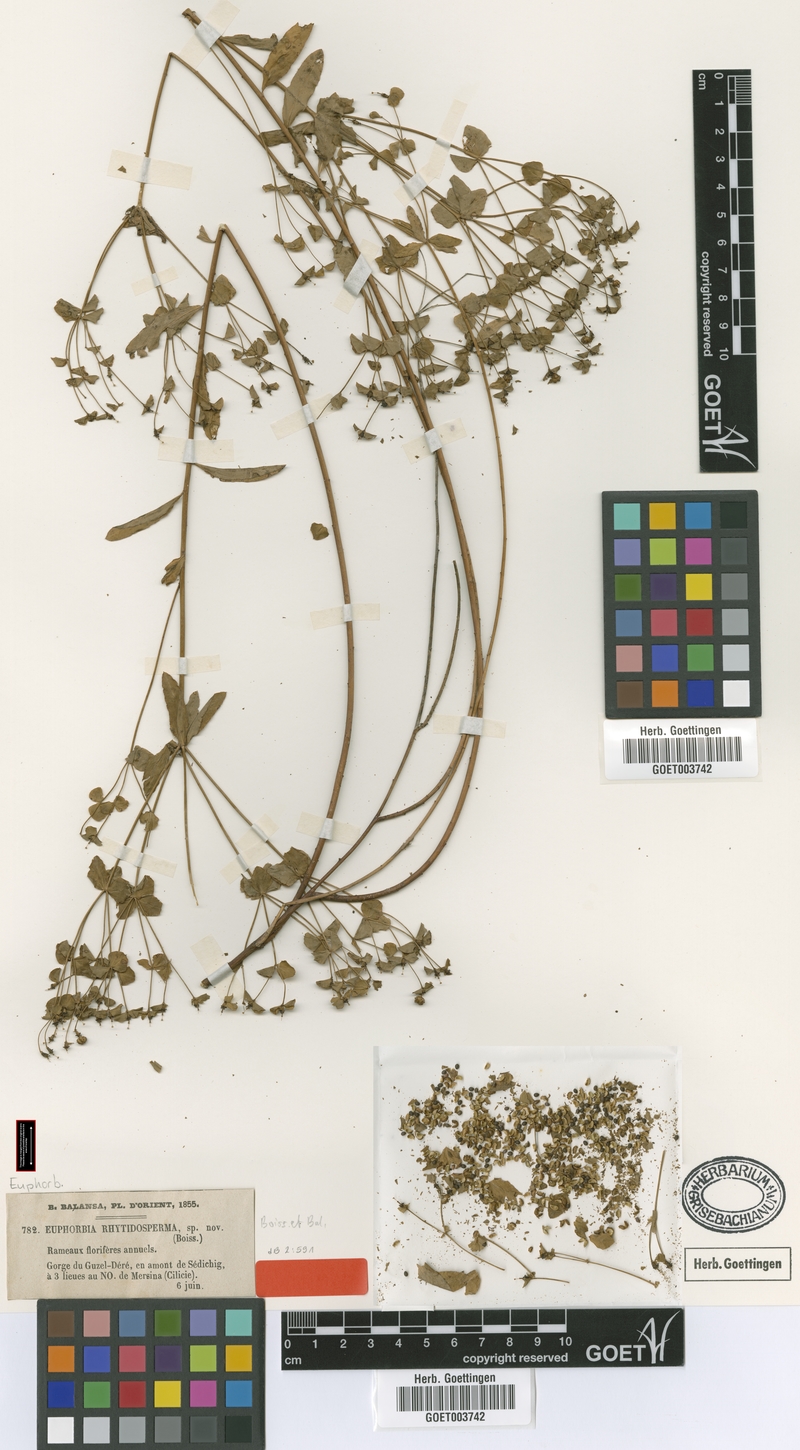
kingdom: Plantae
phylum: Tracheophyta
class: Magnoliopsida
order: Malpighiales
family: Euphorbiaceae
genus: Euphorbia
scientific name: Euphorbia rhytidosperma
